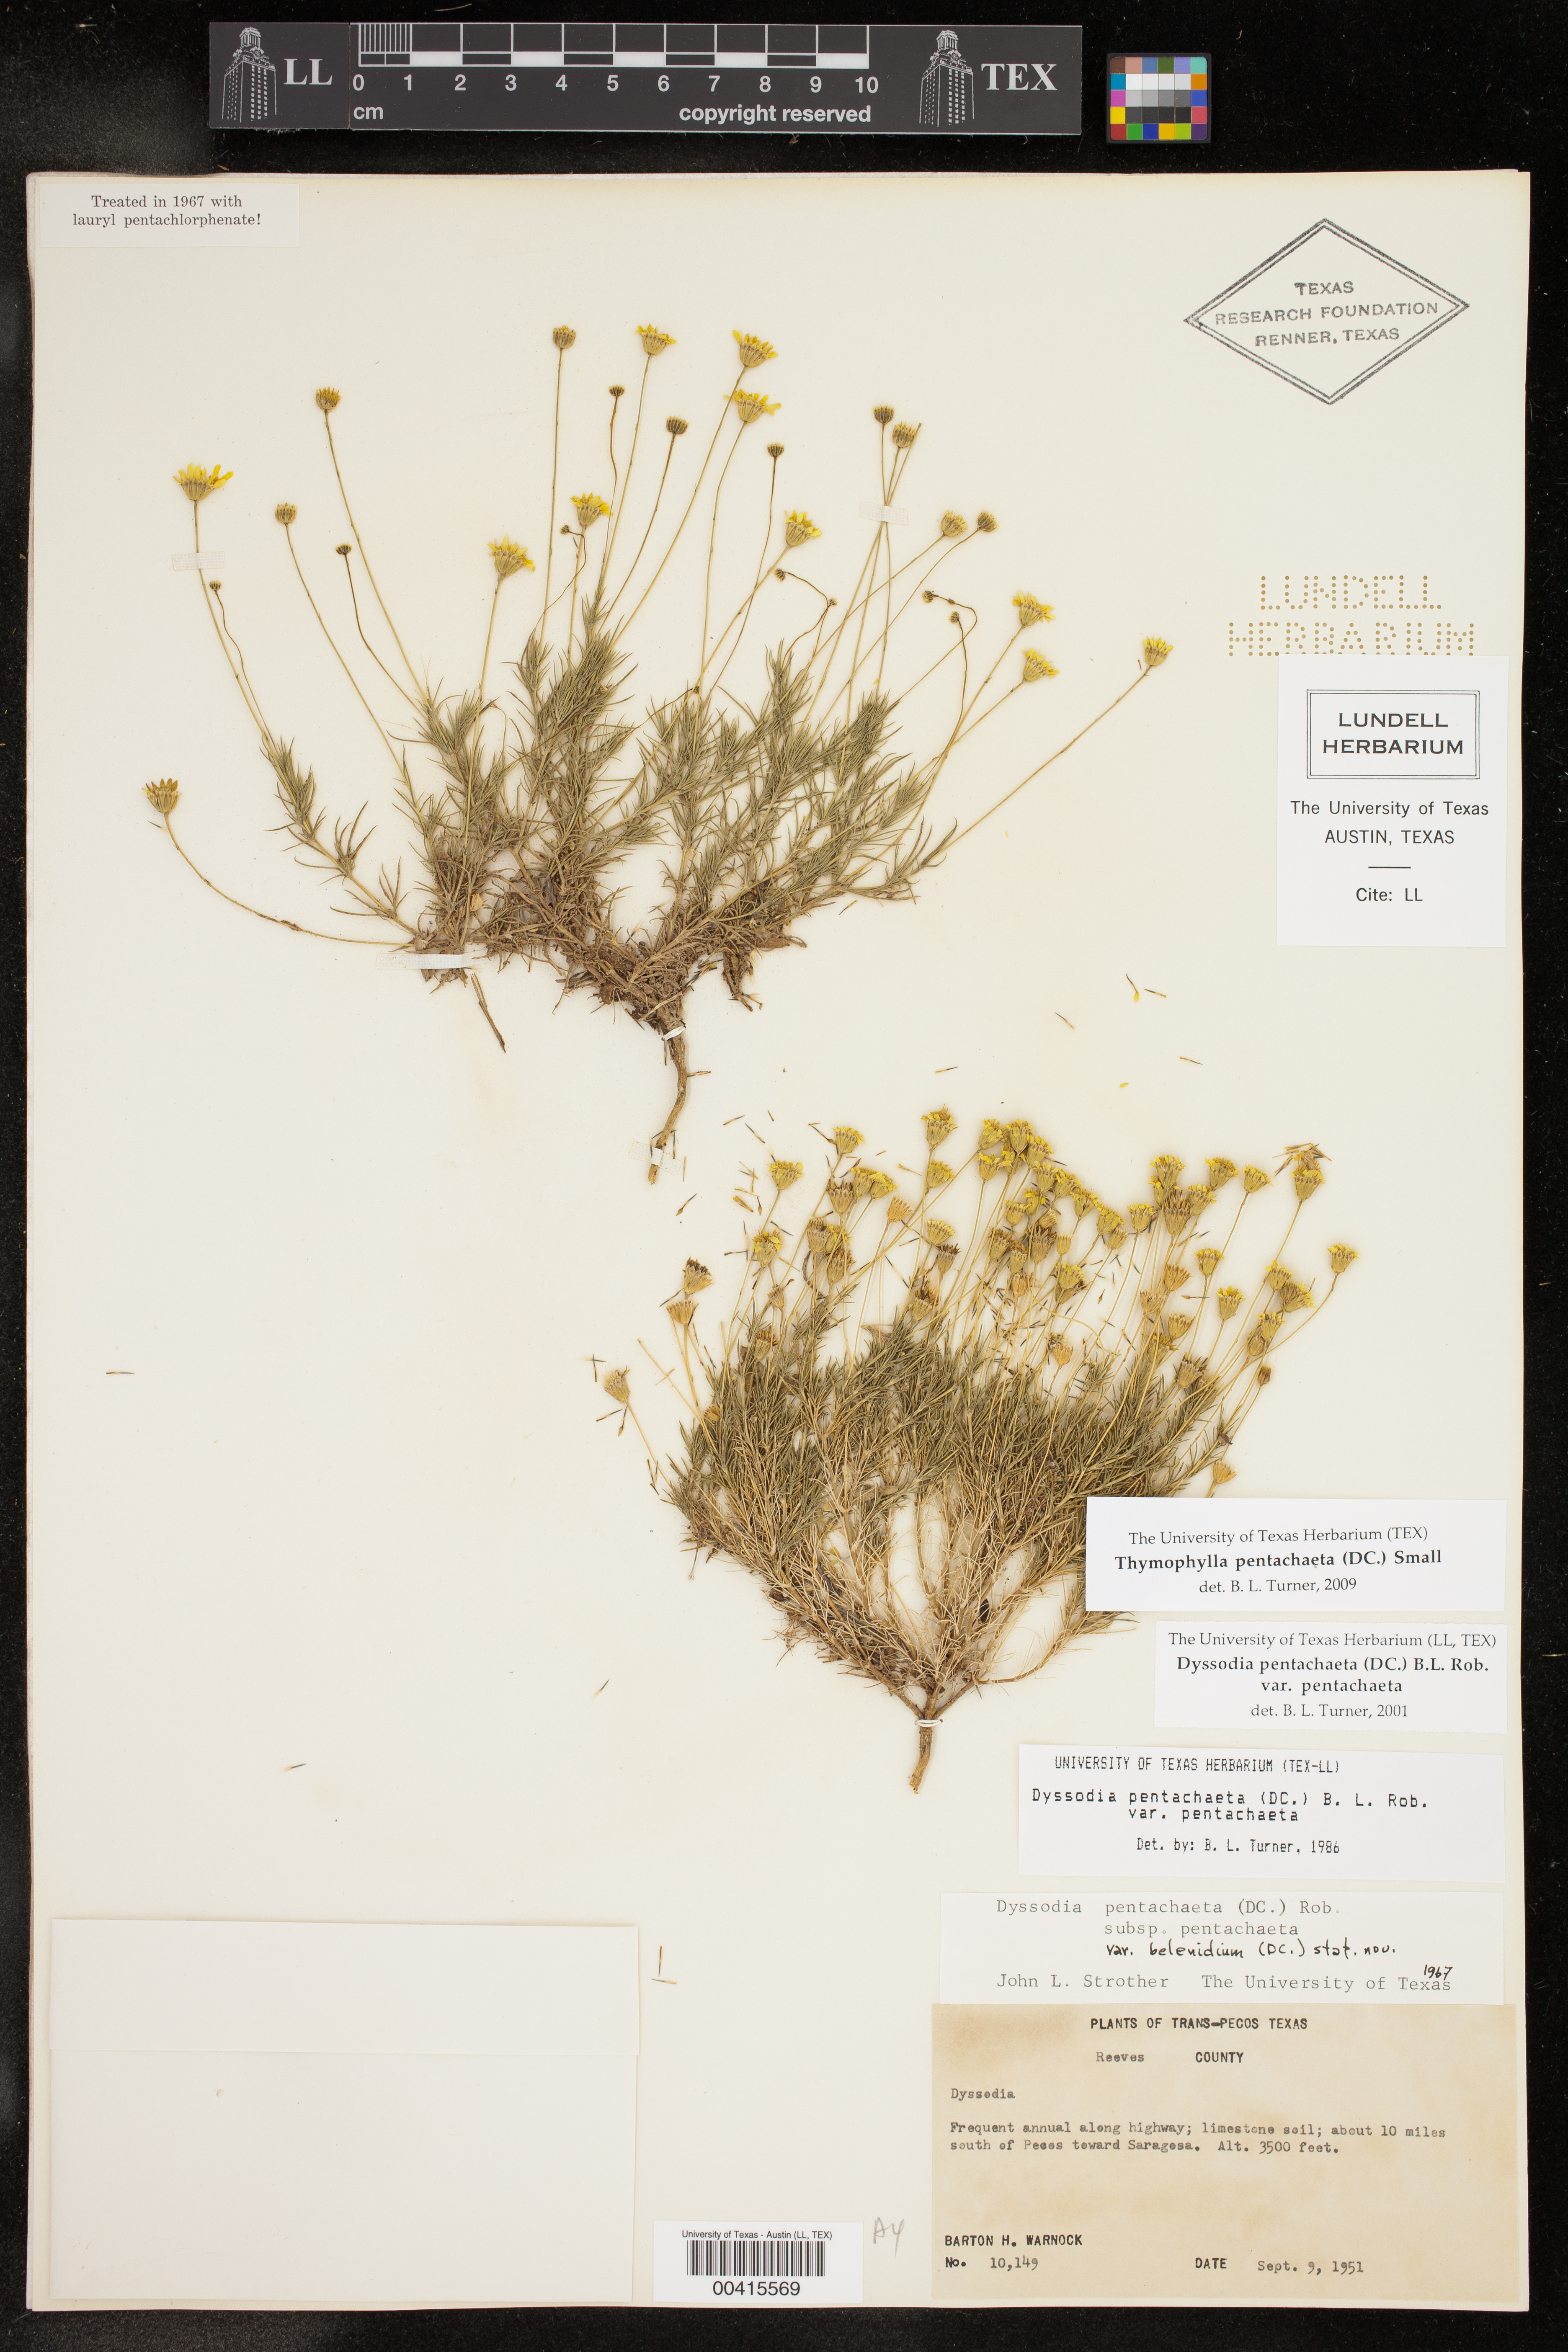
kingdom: Plantae
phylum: Tracheophyta
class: Magnoliopsida
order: Asterales
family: Asteraceae
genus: Thymophylla
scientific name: Thymophylla pentachaeta
